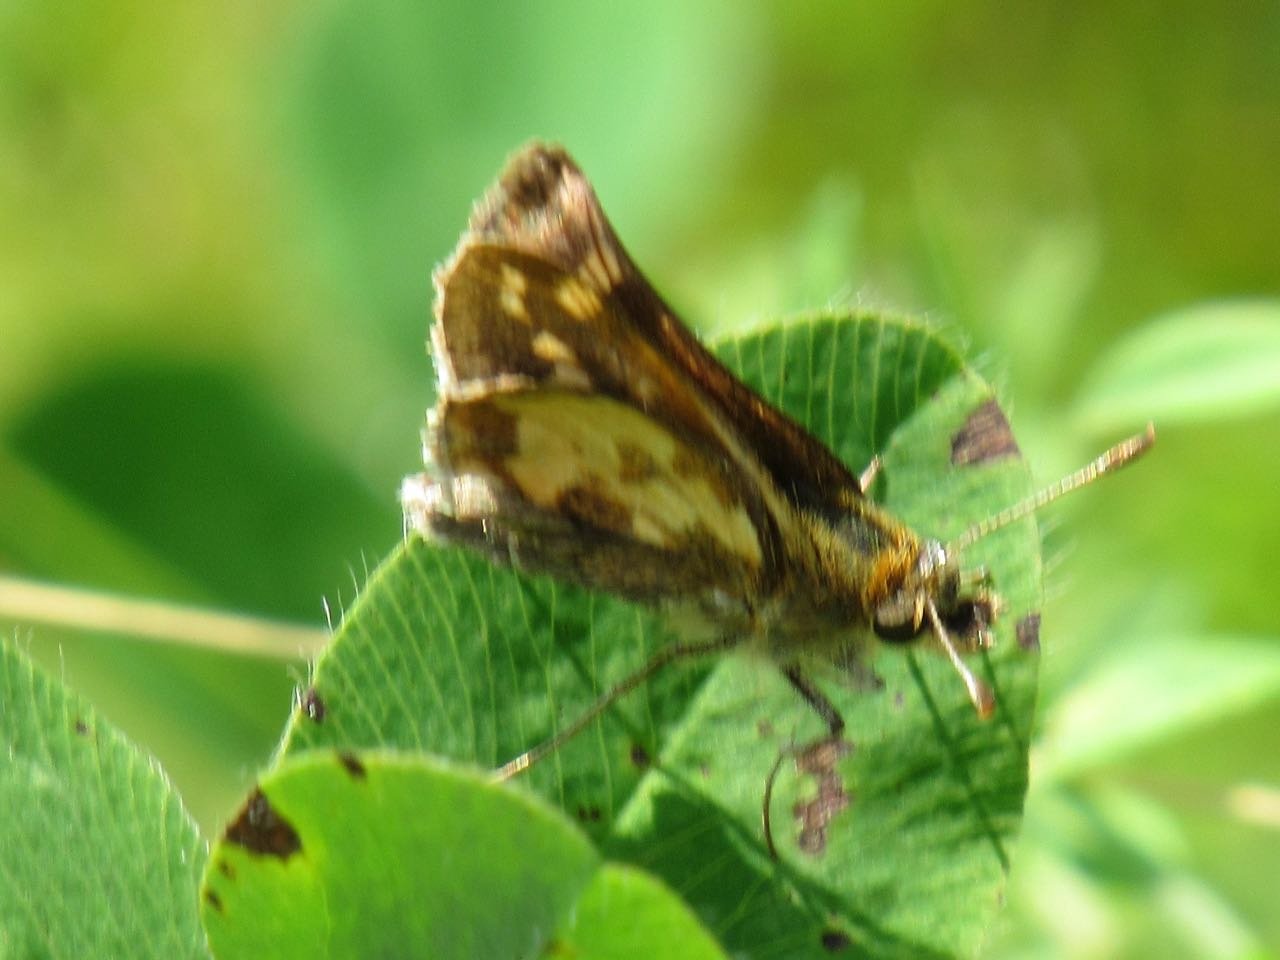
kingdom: Animalia
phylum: Arthropoda
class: Insecta
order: Lepidoptera
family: Hesperiidae
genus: Polites
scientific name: Polites coras
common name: Peck's Skipper
